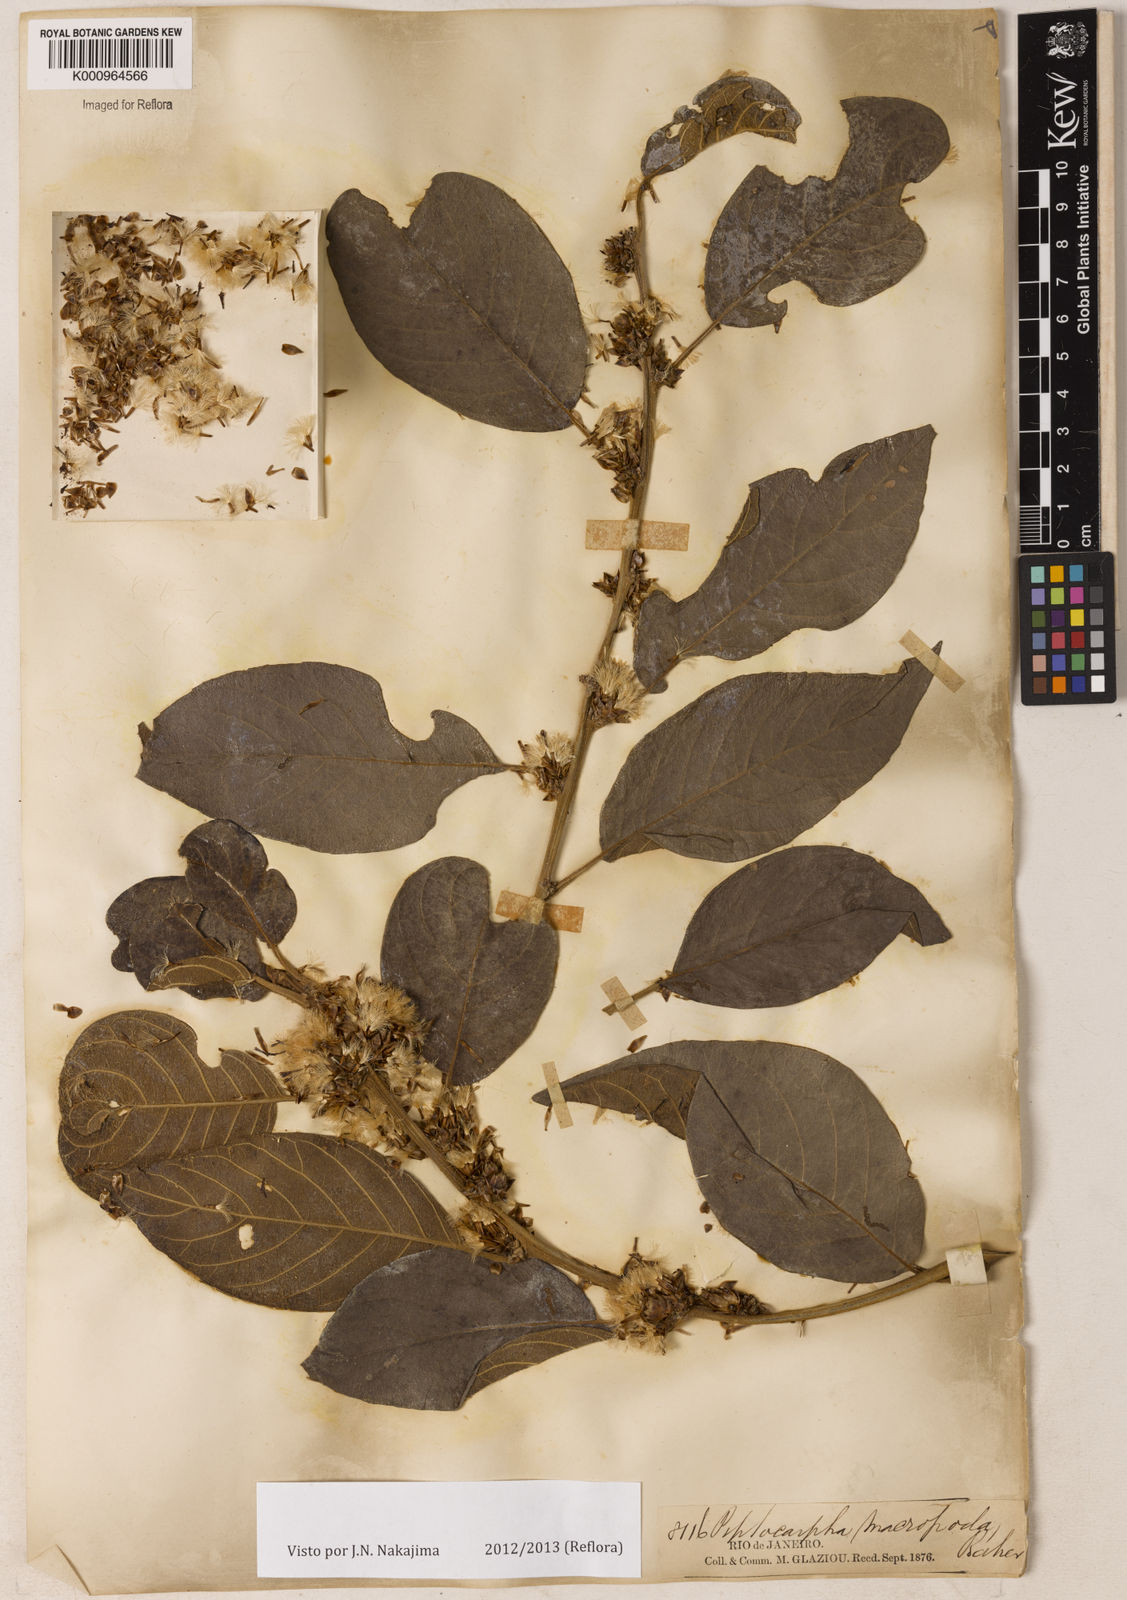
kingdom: Plantae
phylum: Tracheophyta
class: Magnoliopsida
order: Asterales
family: Asteraceae
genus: Piptocarpha
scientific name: Piptocarpha macropoda
